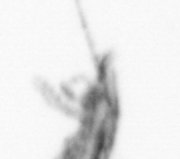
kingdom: Animalia
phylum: Arthropoda
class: Copepoda
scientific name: Copepoda
